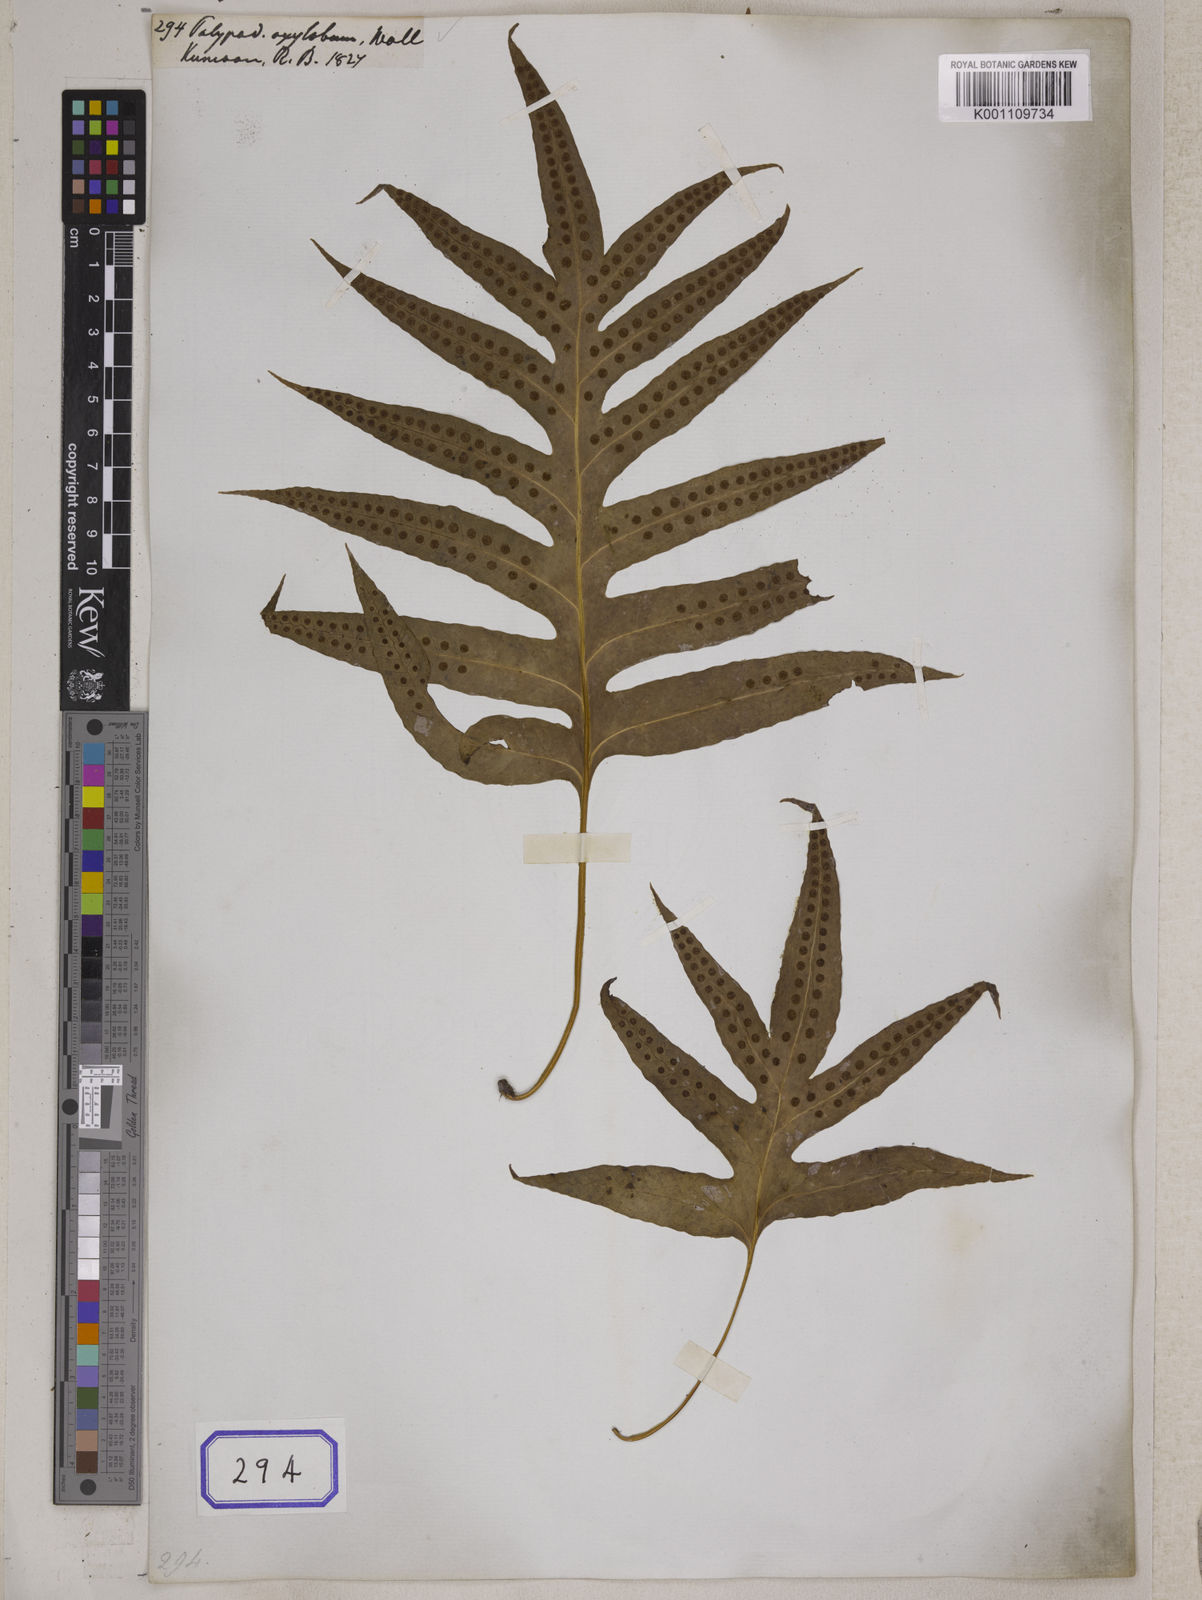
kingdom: Plantae
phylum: Tracheophyta
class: Polypodiopsida
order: Polypodiales
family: Polypodiaceae
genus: Polypodium
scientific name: Polypodium
